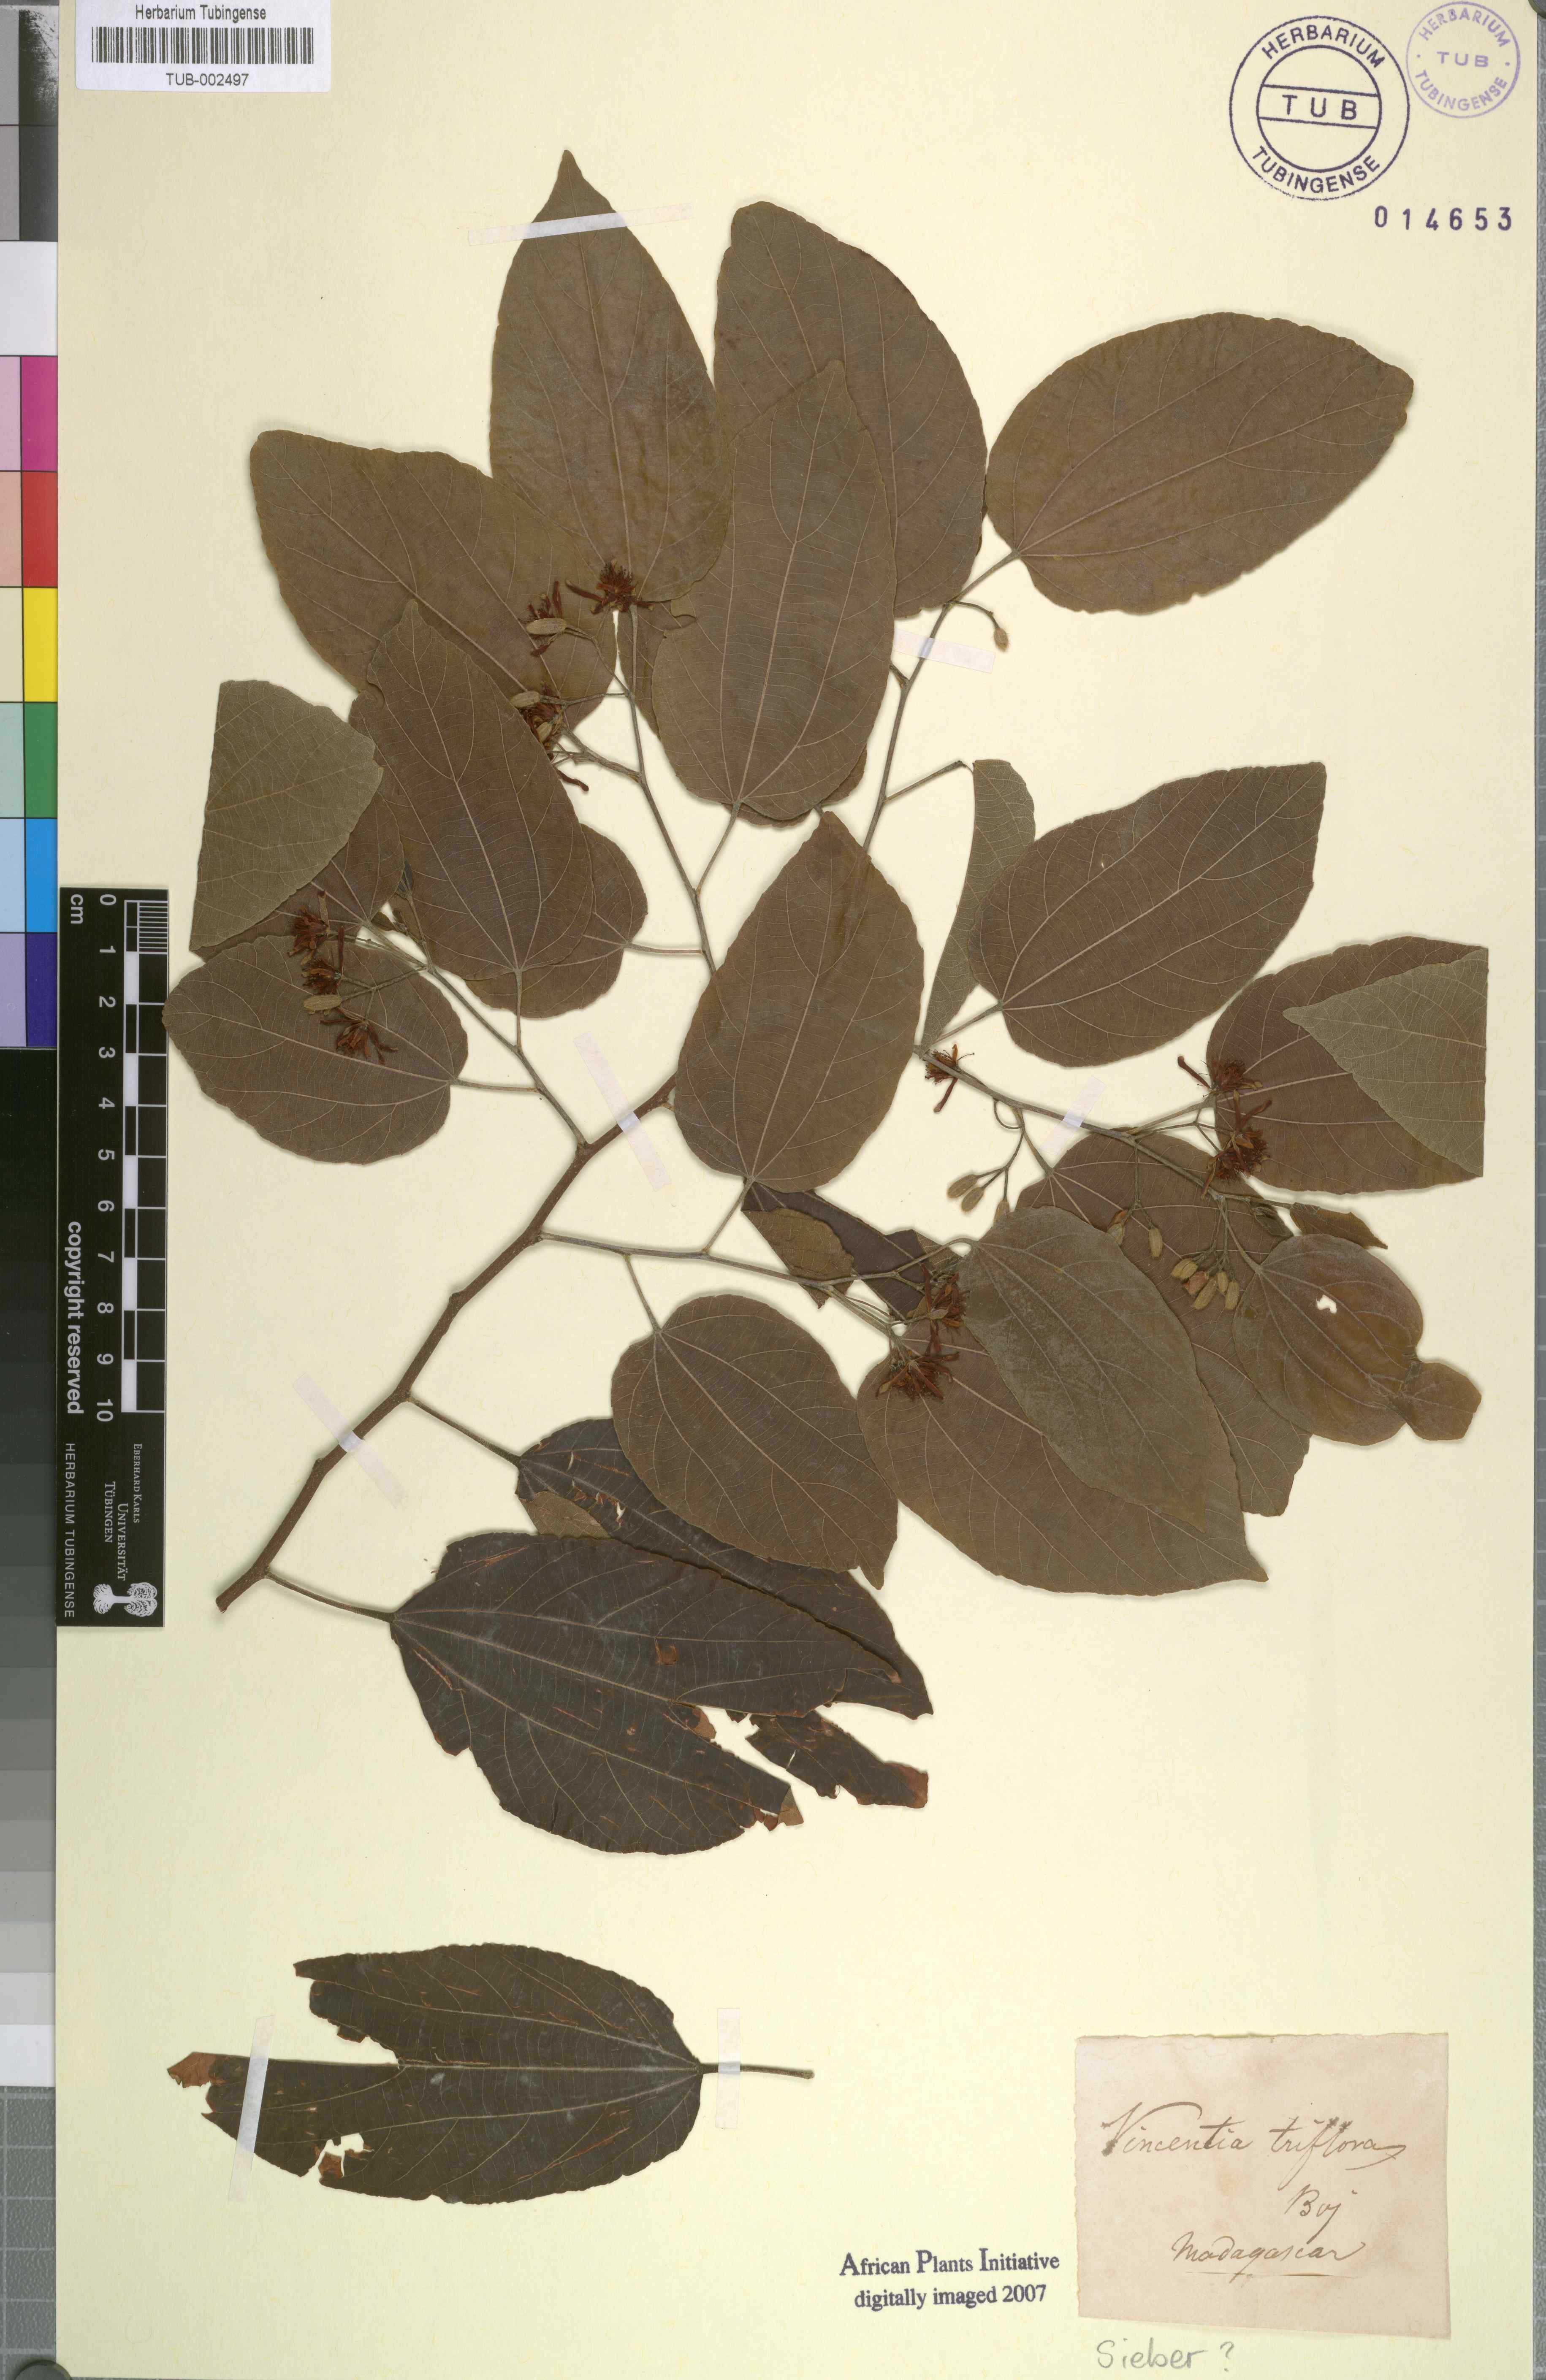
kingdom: Plantae
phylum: Tracheophyta
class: Magnoliopsida
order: Malvales
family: Malvaceae
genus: Grewia
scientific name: Grewia triflora
